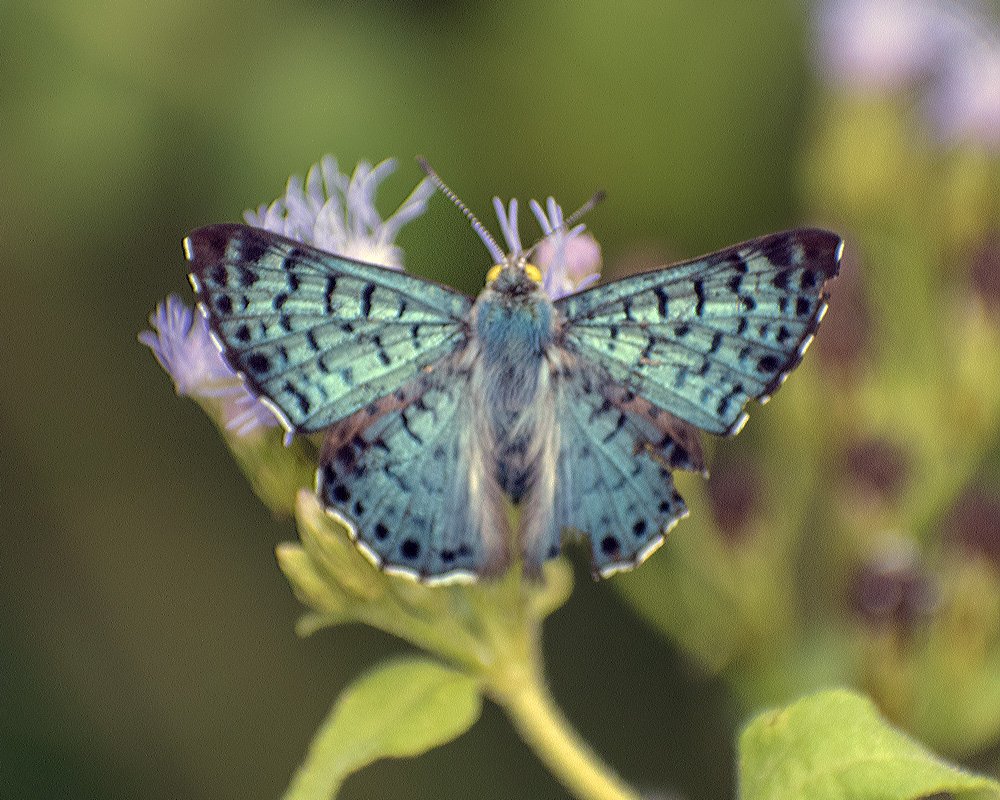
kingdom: Animalia
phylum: Arthropoda
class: Insecta
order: Lepidoptera
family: Riodinidae
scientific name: Riodinidae
